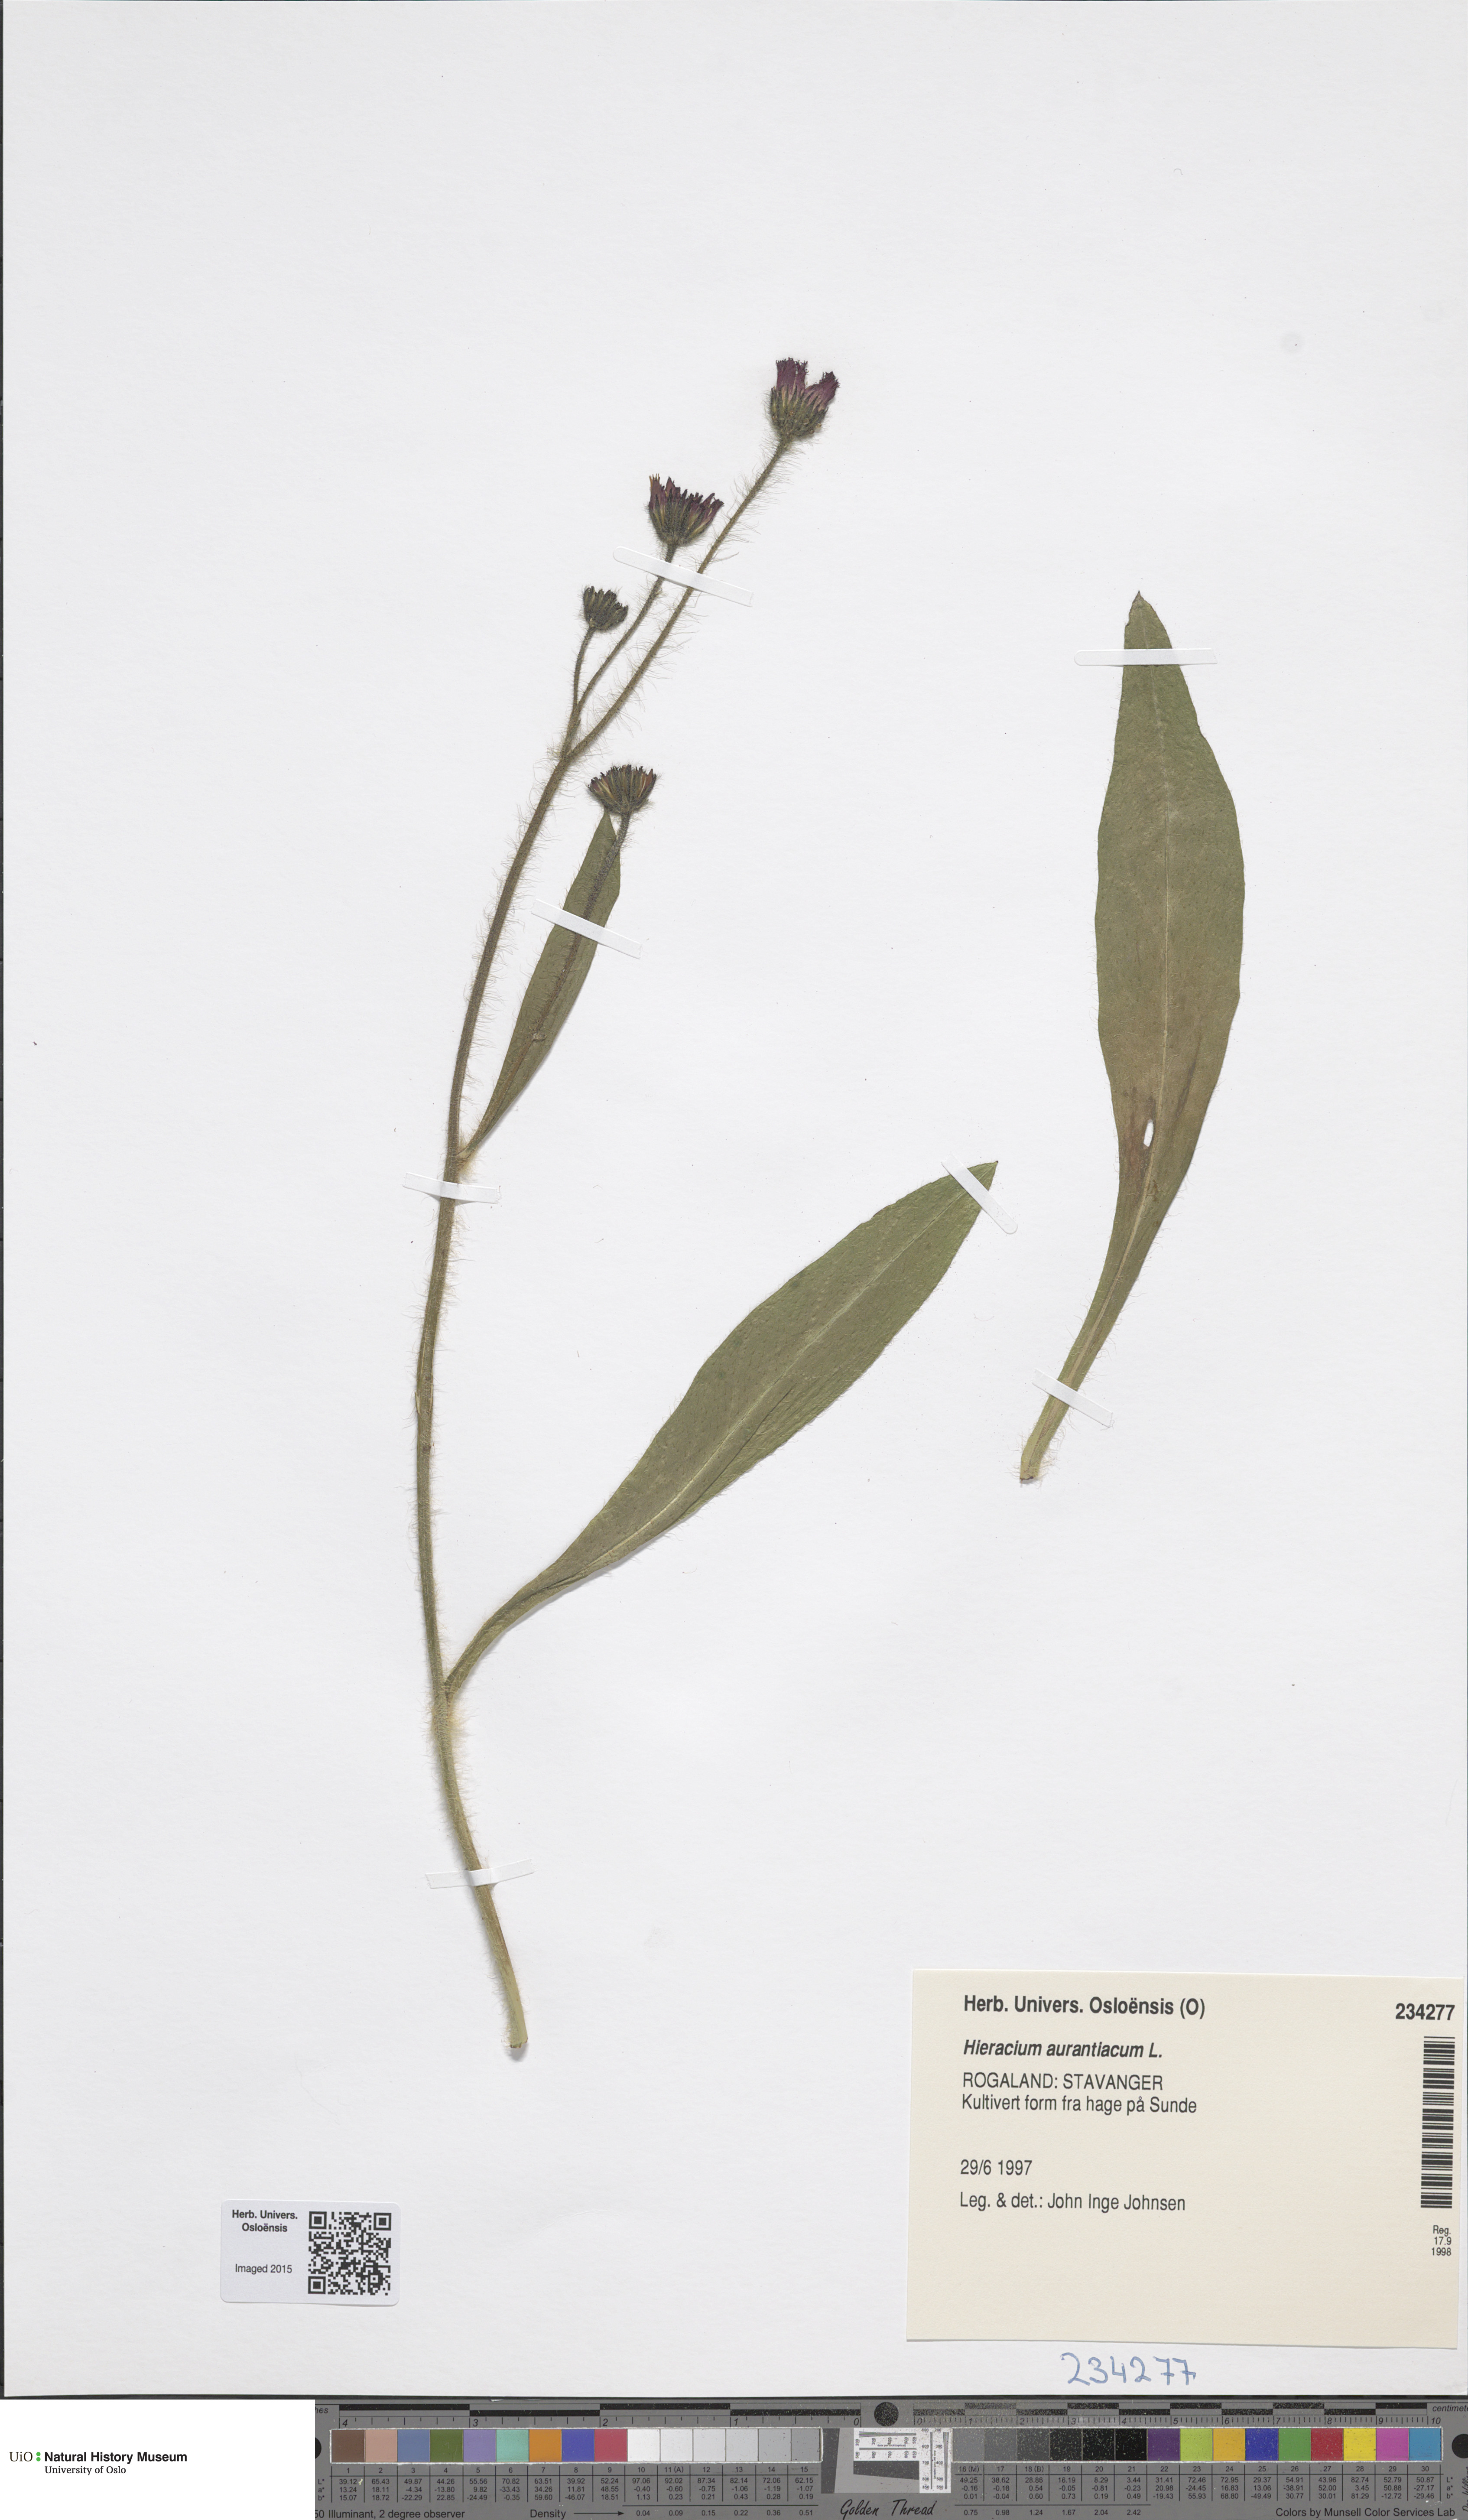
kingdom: Plantae
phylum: Tracheophyta
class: Magnoliopsida
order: Asterales
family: Asteraceae
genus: Pilosella
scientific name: Pilosella aurantiaca
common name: Fox-and-cubs
